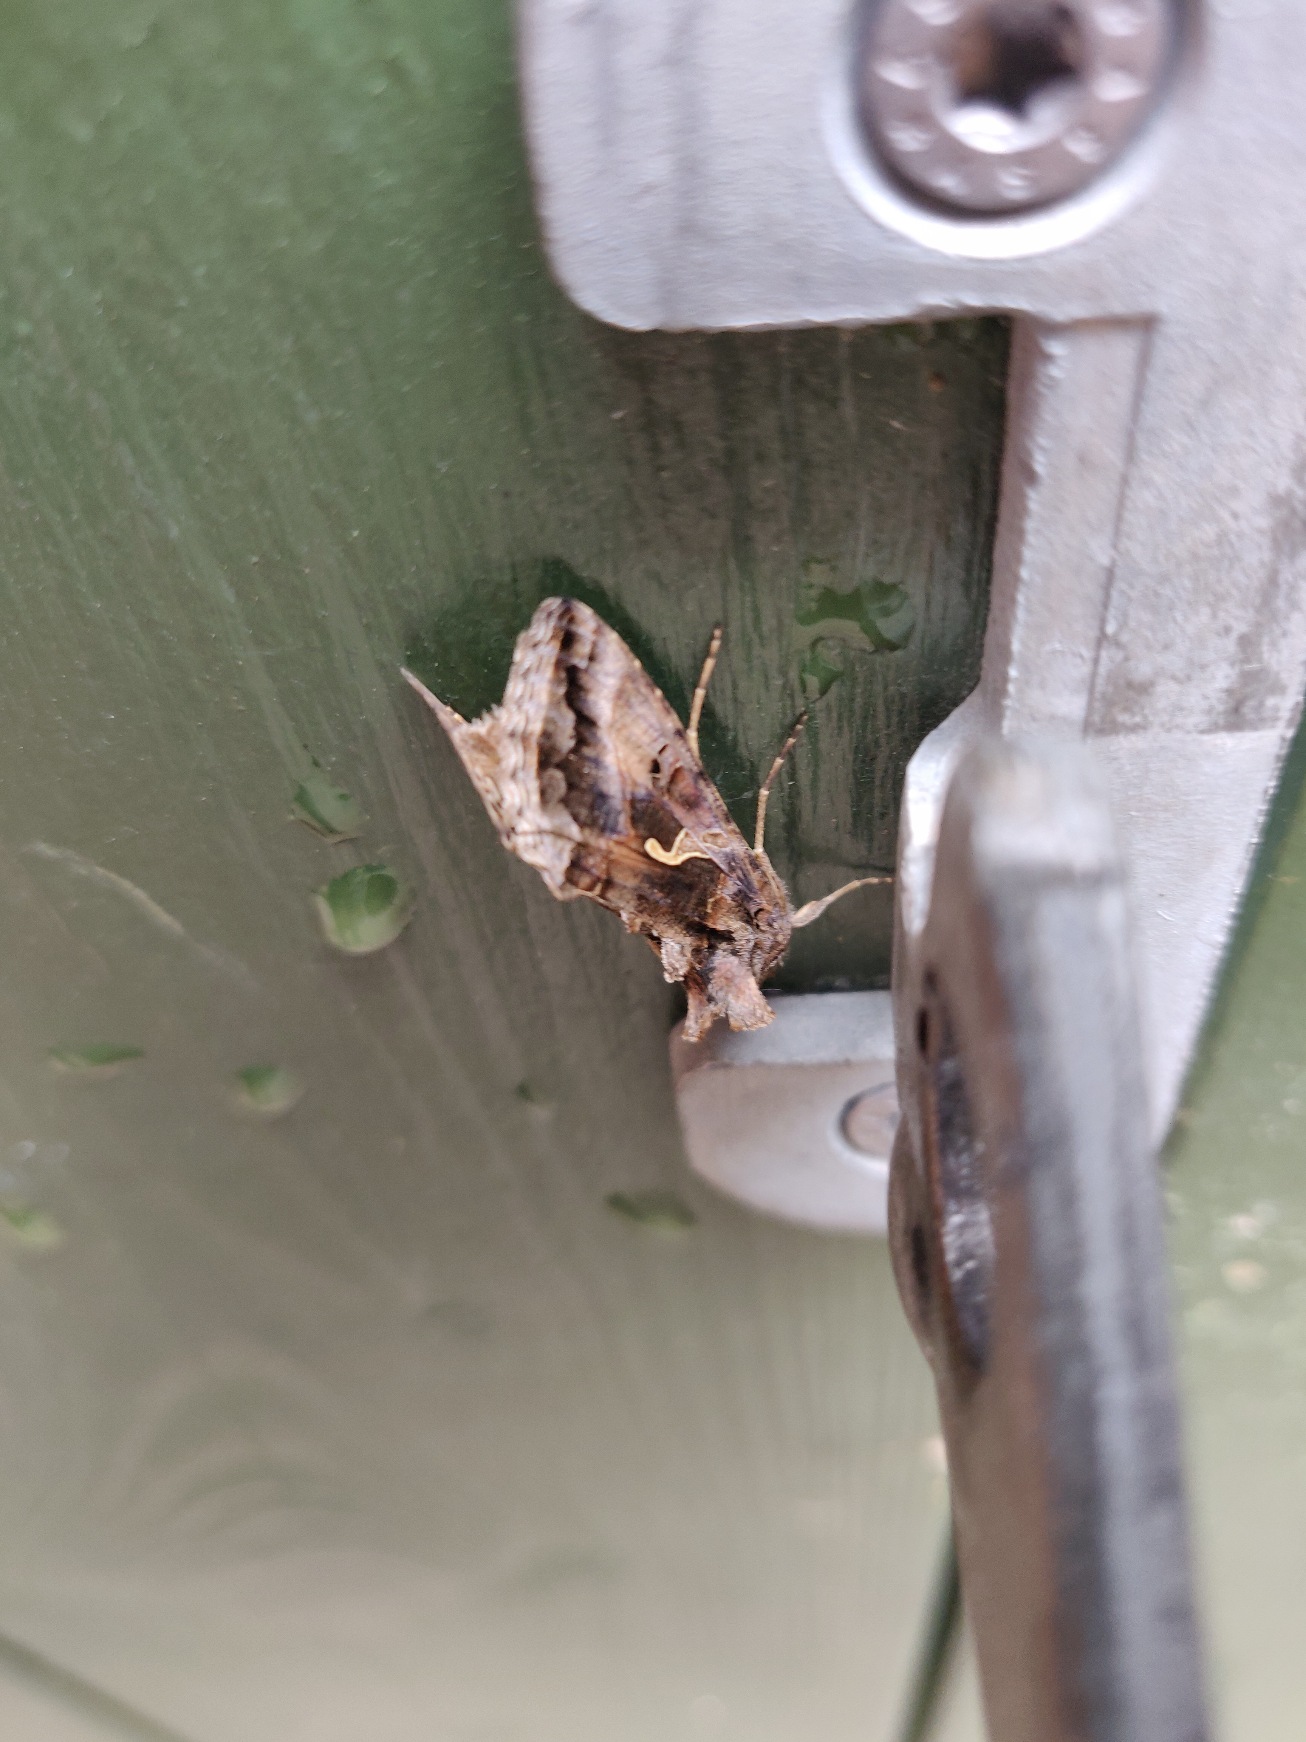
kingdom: Animalia
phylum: Arthropoda
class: Insecta
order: Lepidoptera
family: Noctuidae
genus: Autographa
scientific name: Autographa gamma
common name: Gammaugle
